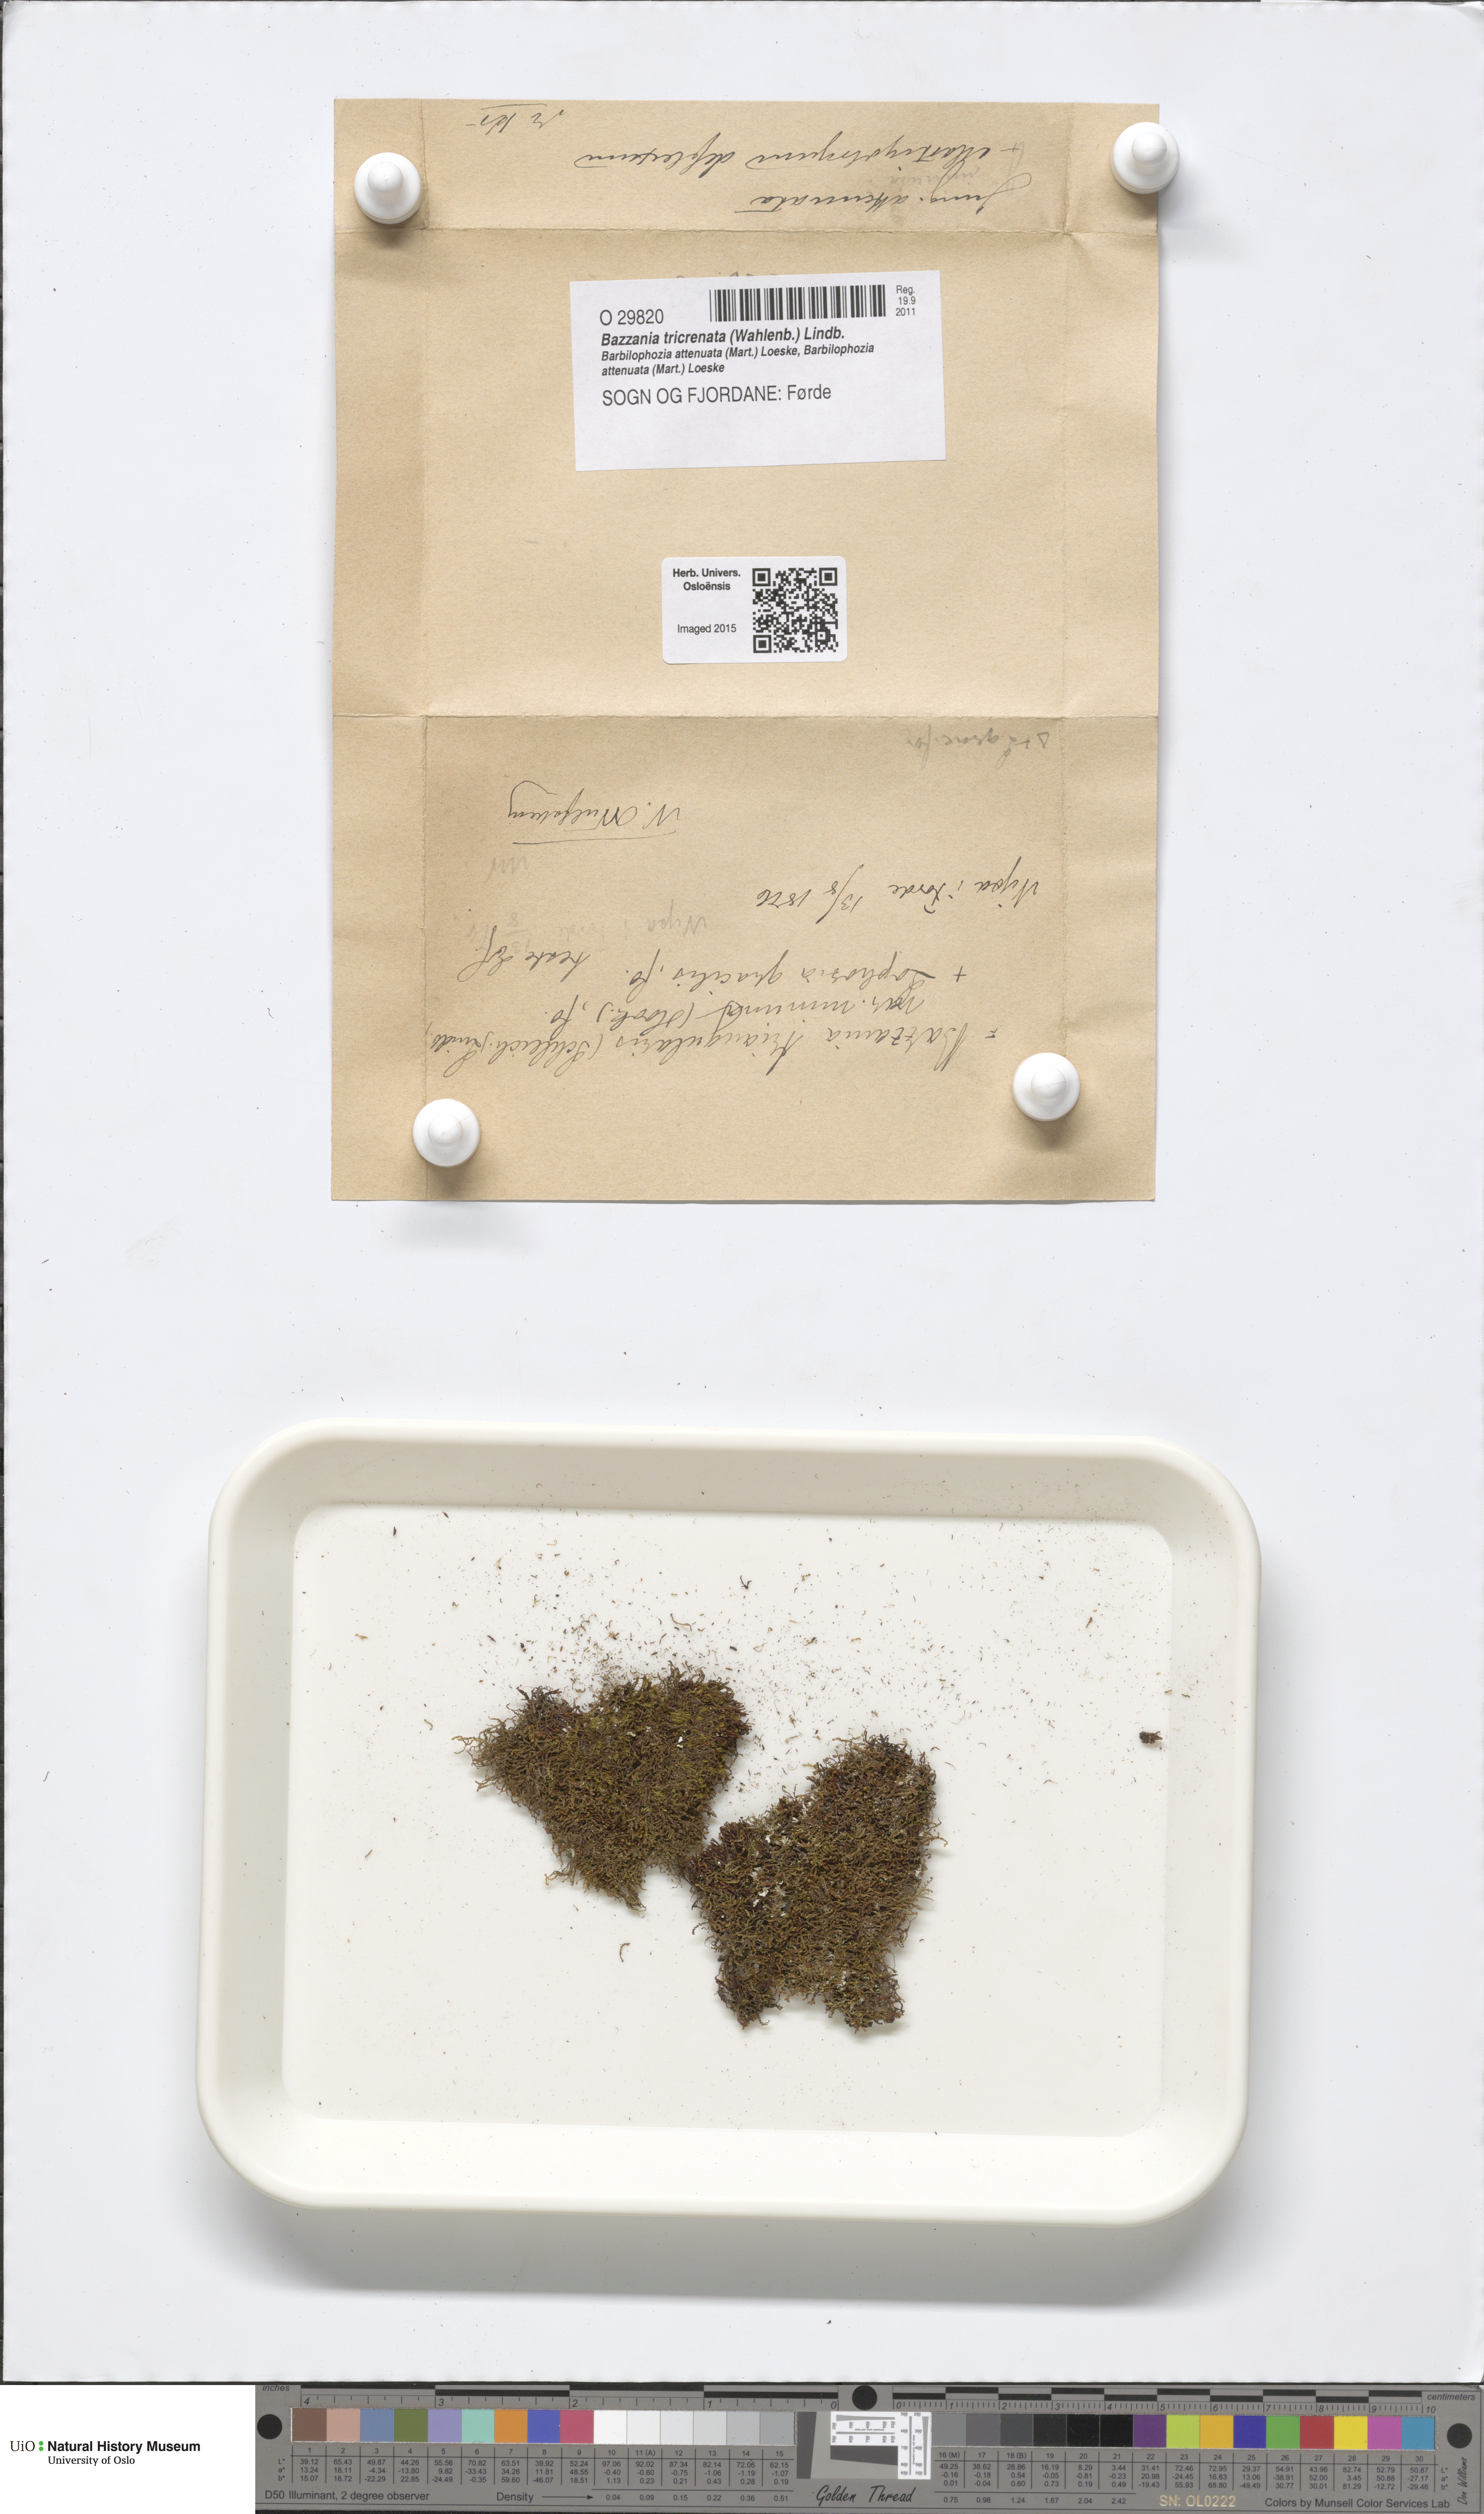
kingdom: Plantae
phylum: Marchantiophyta
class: Jungermanniopsida
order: Jungermanniales
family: Lepidoziaceae
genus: Bazzania
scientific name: Bazzania tricrenata
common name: Lesser whipwort
